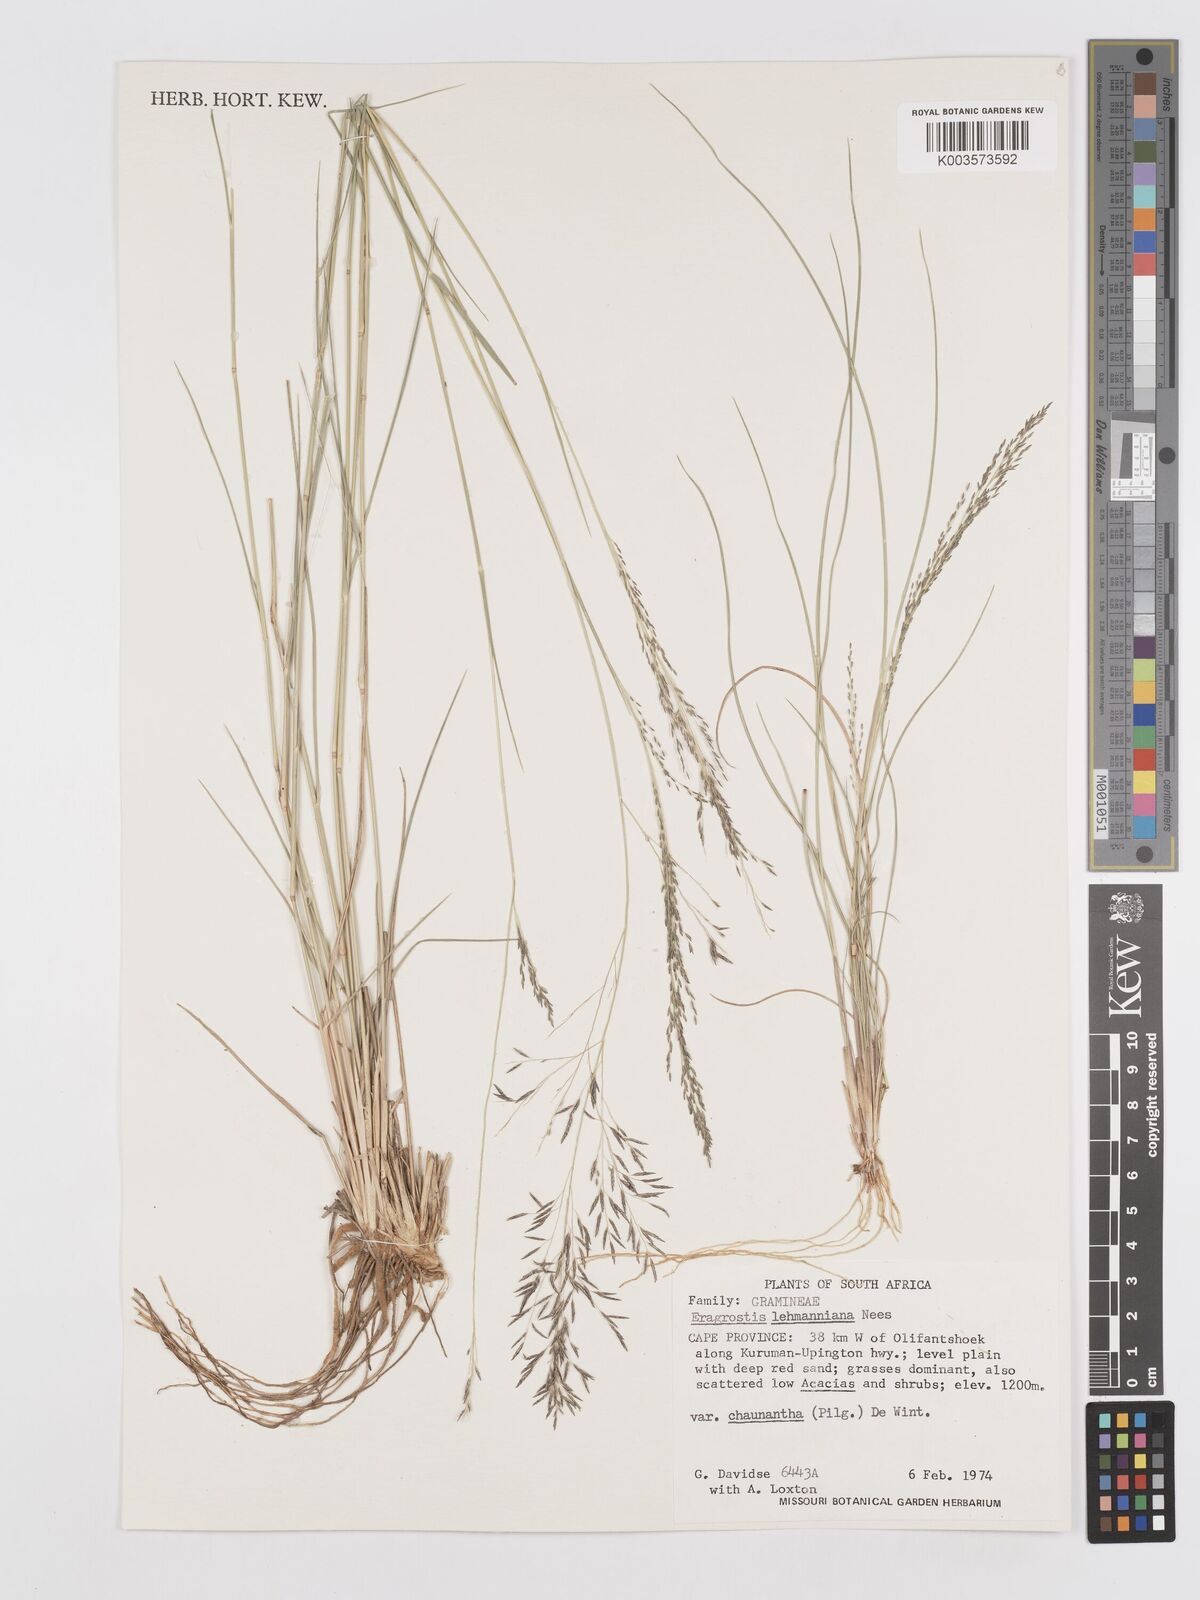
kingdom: Plantae
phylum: Tracheophyta
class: Liliopsida
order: Poales
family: Poaceae
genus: Eragrostis
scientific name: Eragrostis lehmanniana
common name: Lehmann lovegrass
